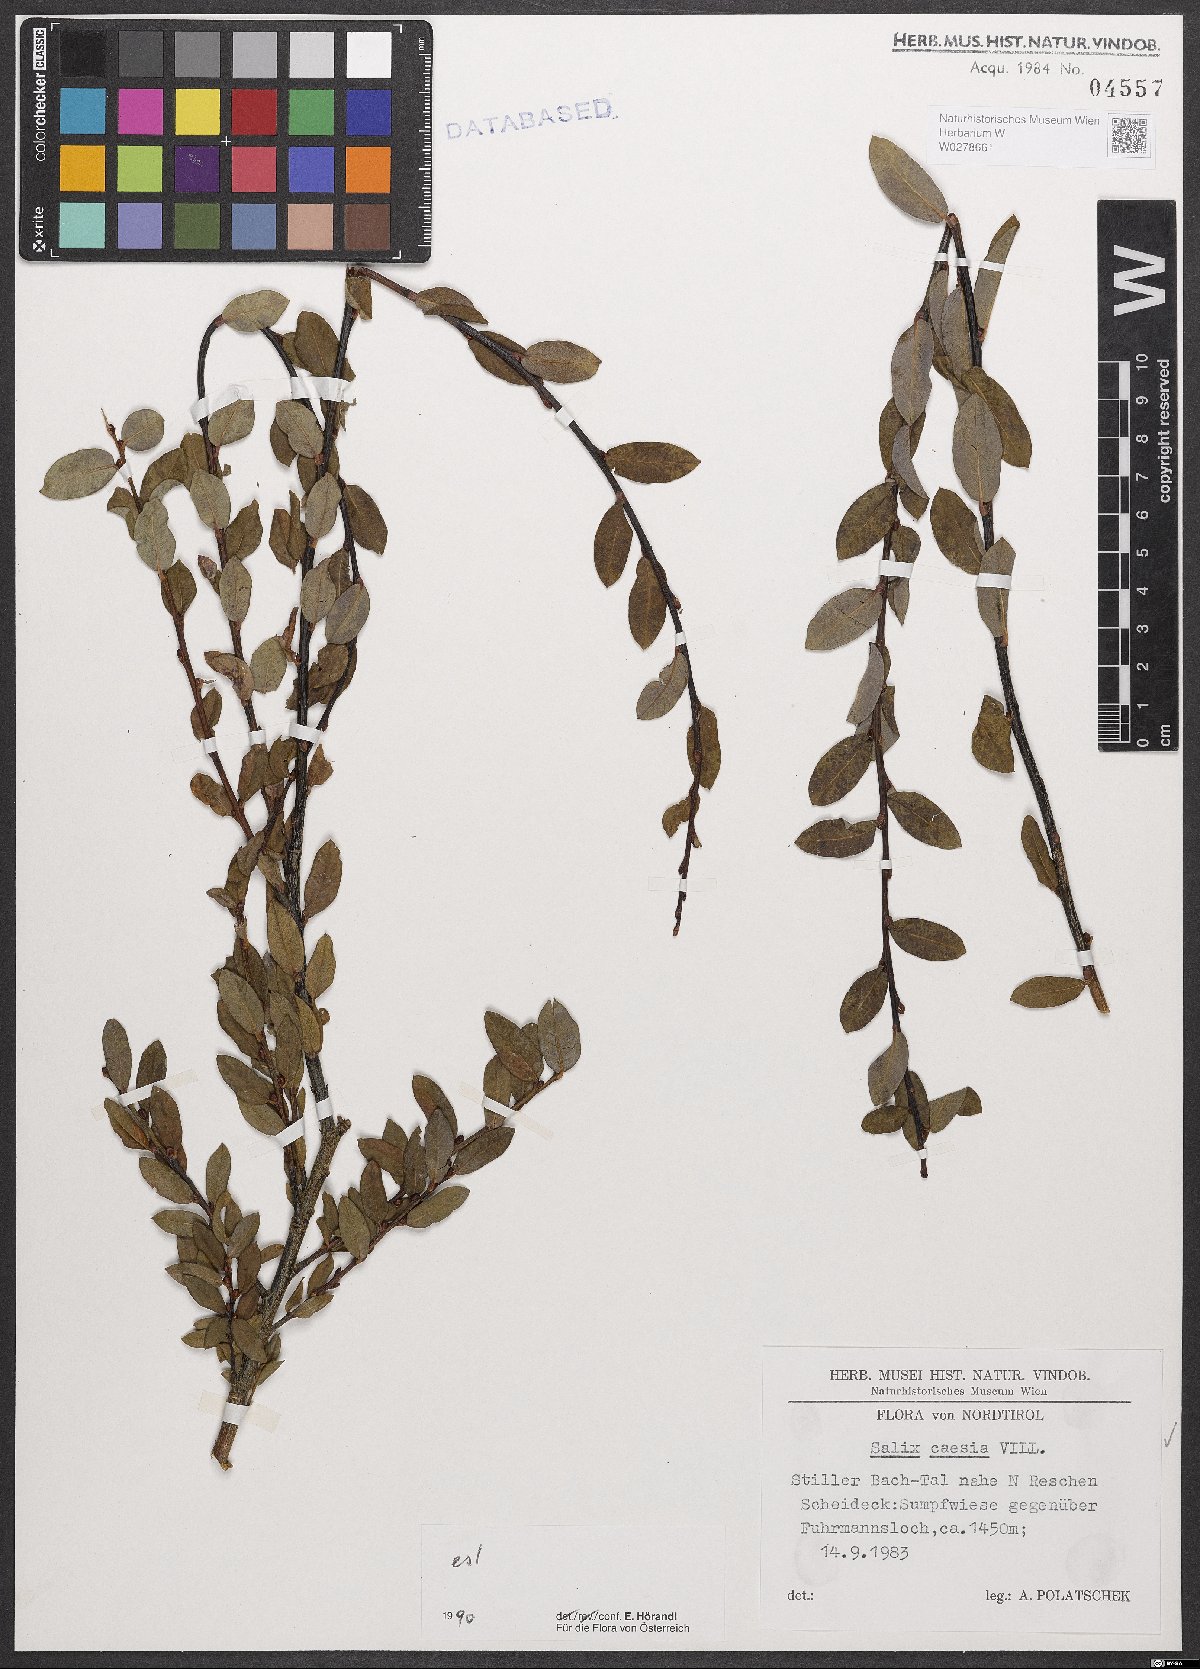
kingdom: Plantae
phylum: Tracheophyta
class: Magnoliopsida
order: Malpighiales
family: Salicaceae
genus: Salix
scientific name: Salix caesia
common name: Blue willow
